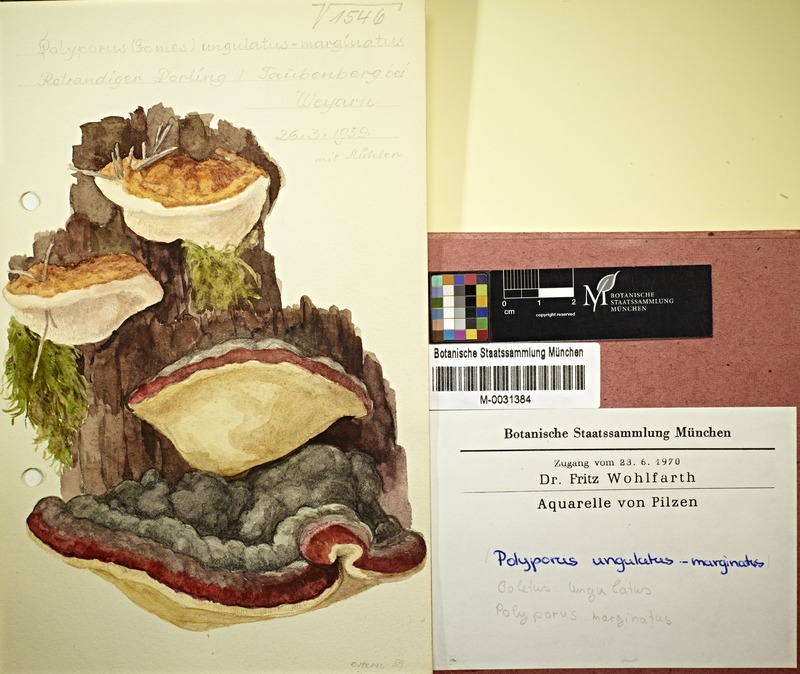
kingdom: Fungi
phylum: Basidiomycota
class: Agaricomycetes
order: Polyporales
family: Fomitopsidaceae
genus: Fomitopsis
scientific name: Fomitopsis pinicola
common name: Red-belted bracket
